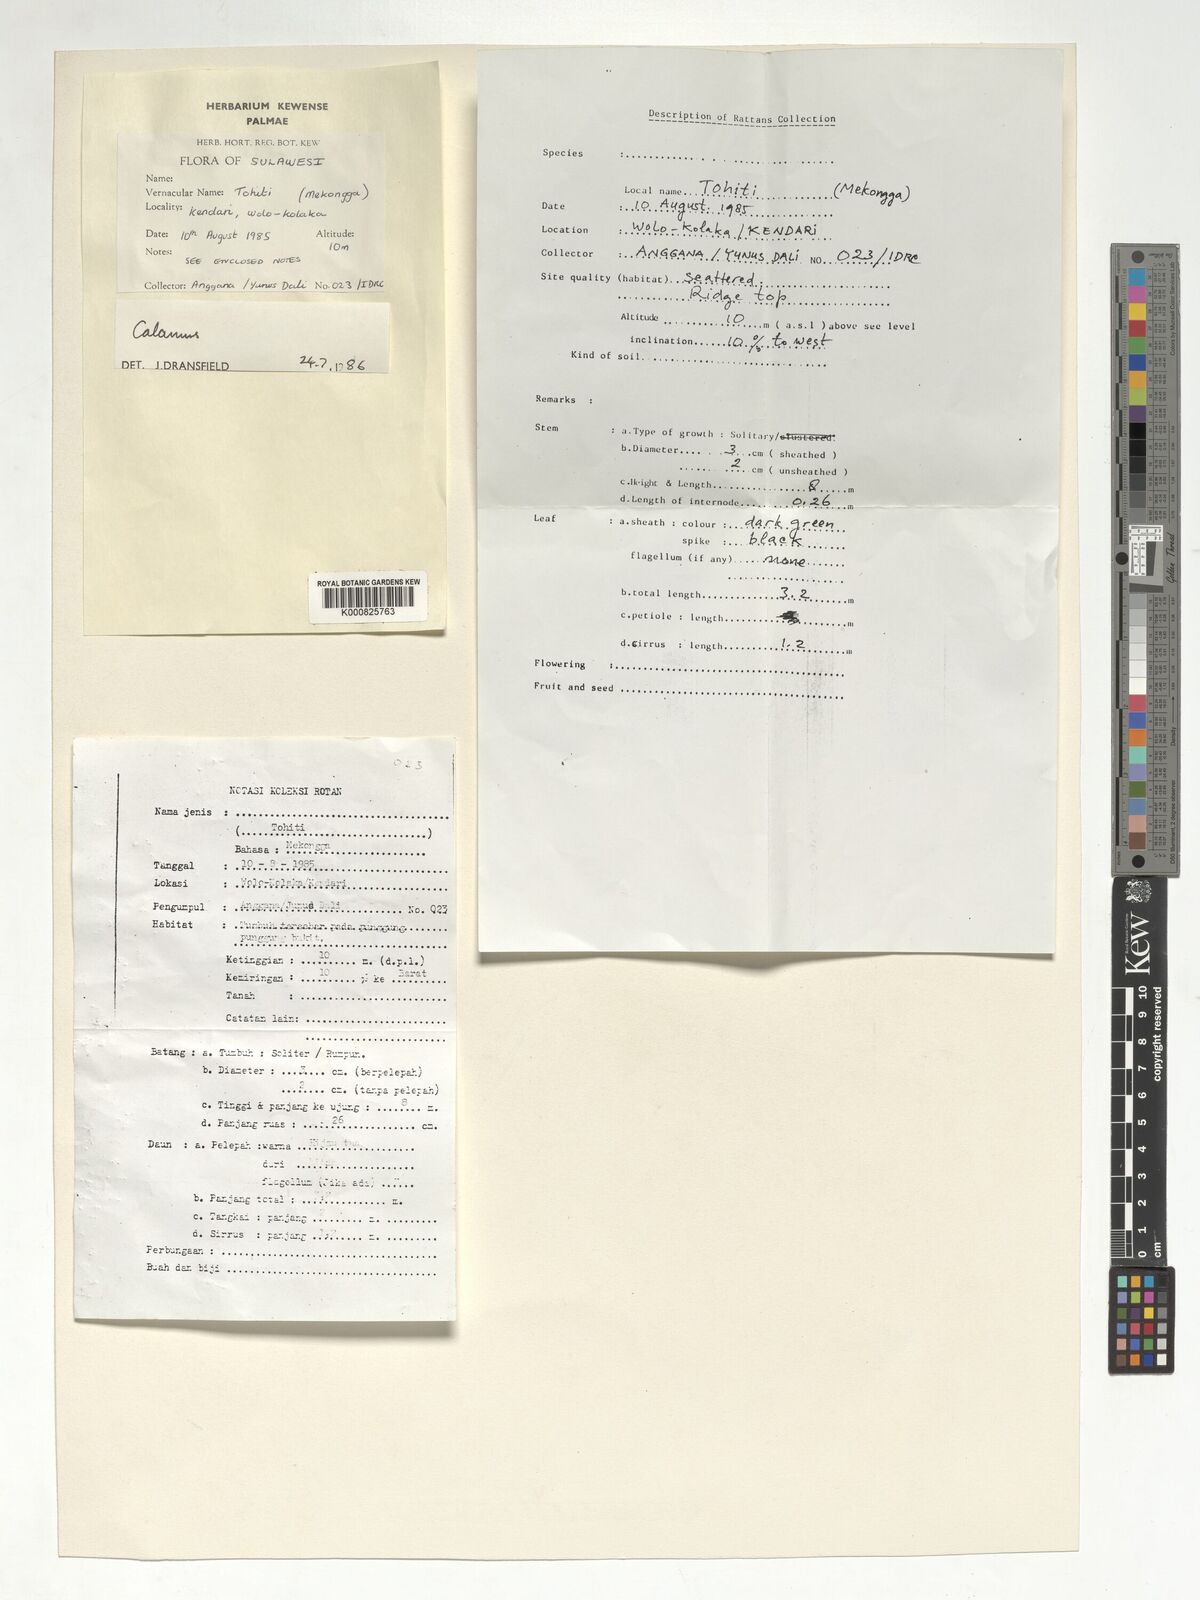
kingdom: Plantae
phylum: Tracheophyta
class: Liliopsida
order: Arecales
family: Arecaceae
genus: Calamus
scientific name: Calamus
